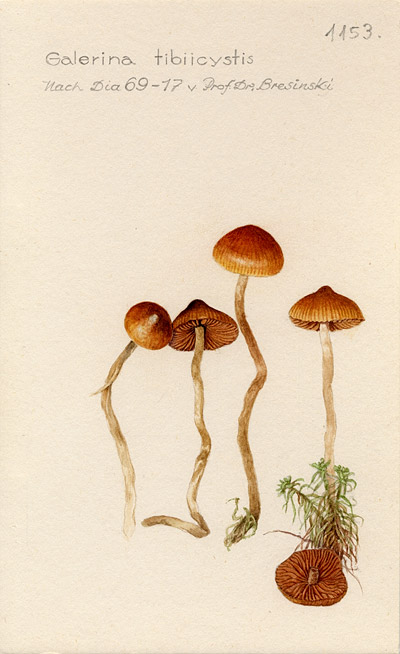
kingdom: Fungi
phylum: Basidiomycota
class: Agaricomycetes
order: Agaricales
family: Hymenogastraceae
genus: Galerina
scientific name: Galerina tibiicystis
